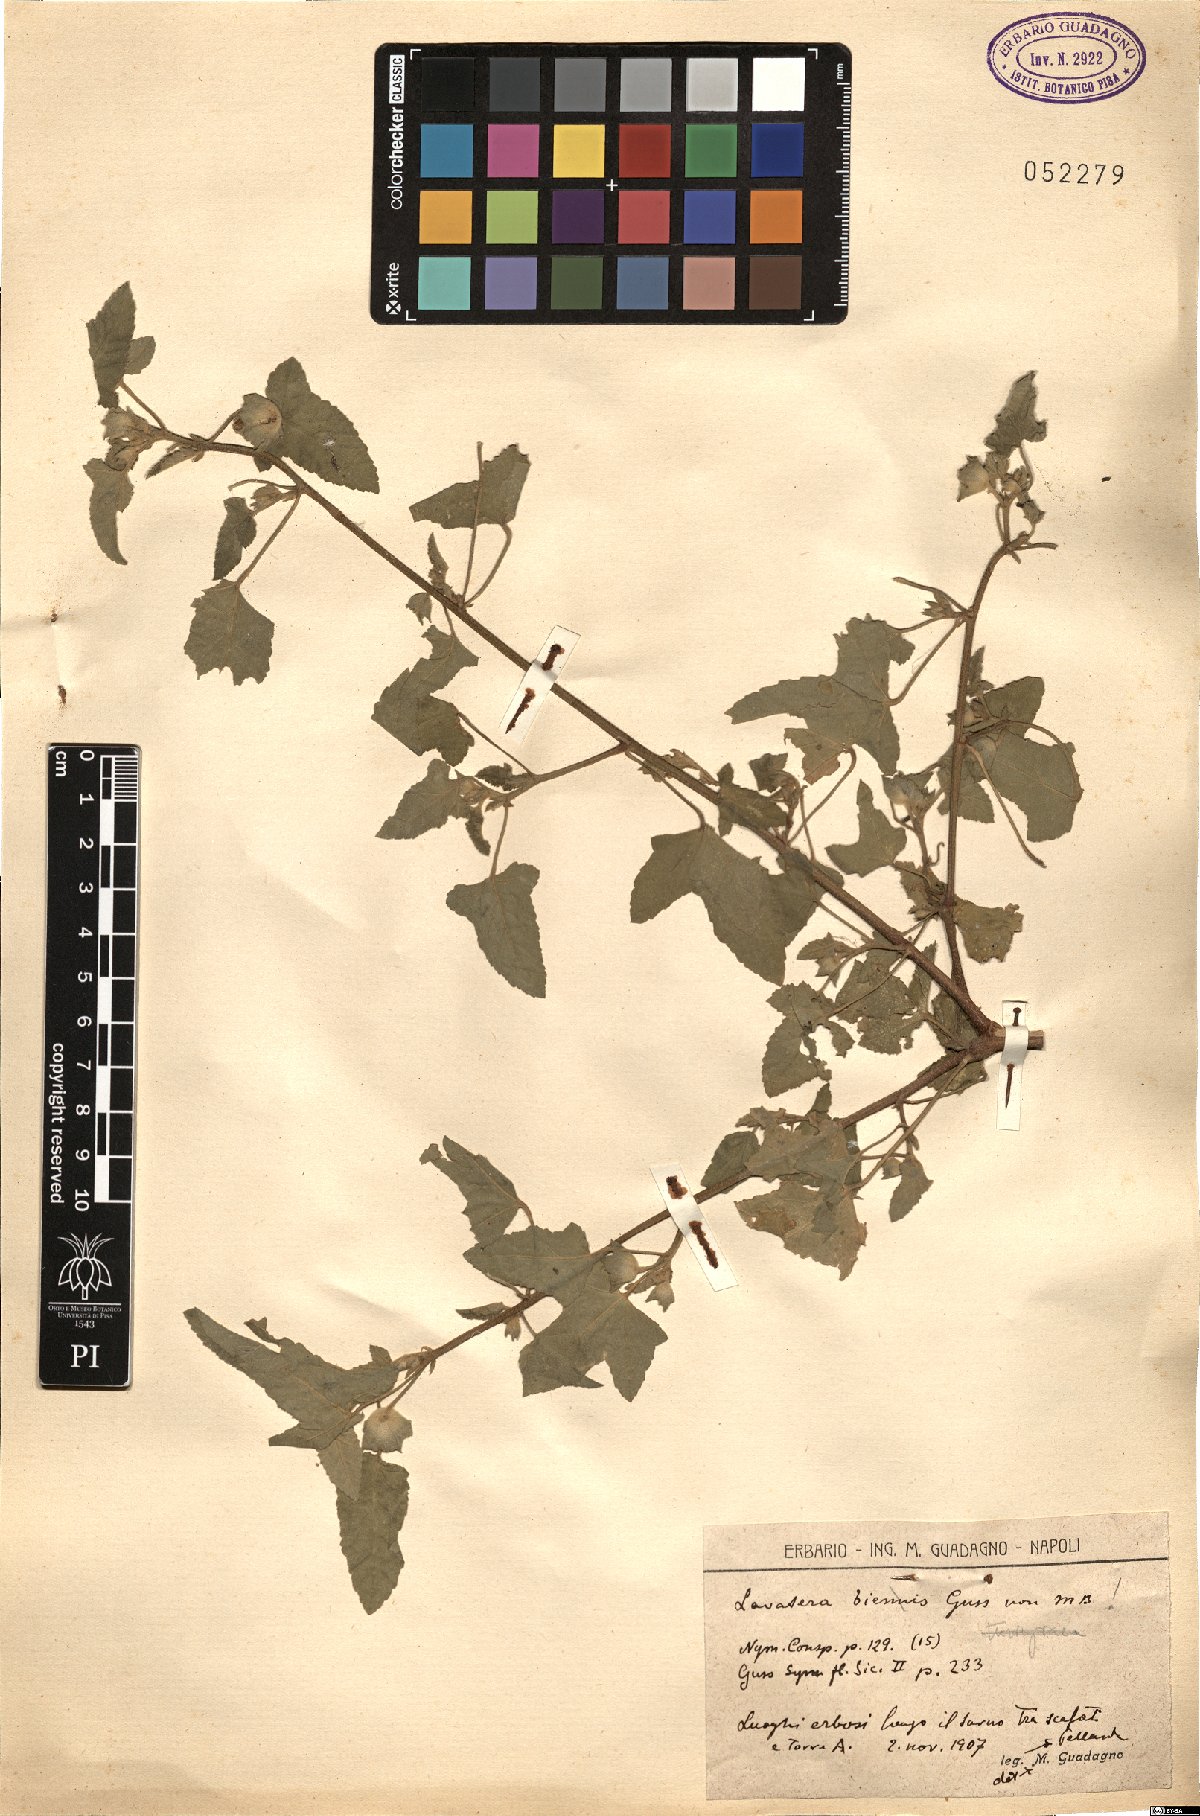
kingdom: Plantae
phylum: Tracheophyta
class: Magnoliopsida
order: Malvales
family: Malvaceae
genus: Malva
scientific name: Malva punctata
